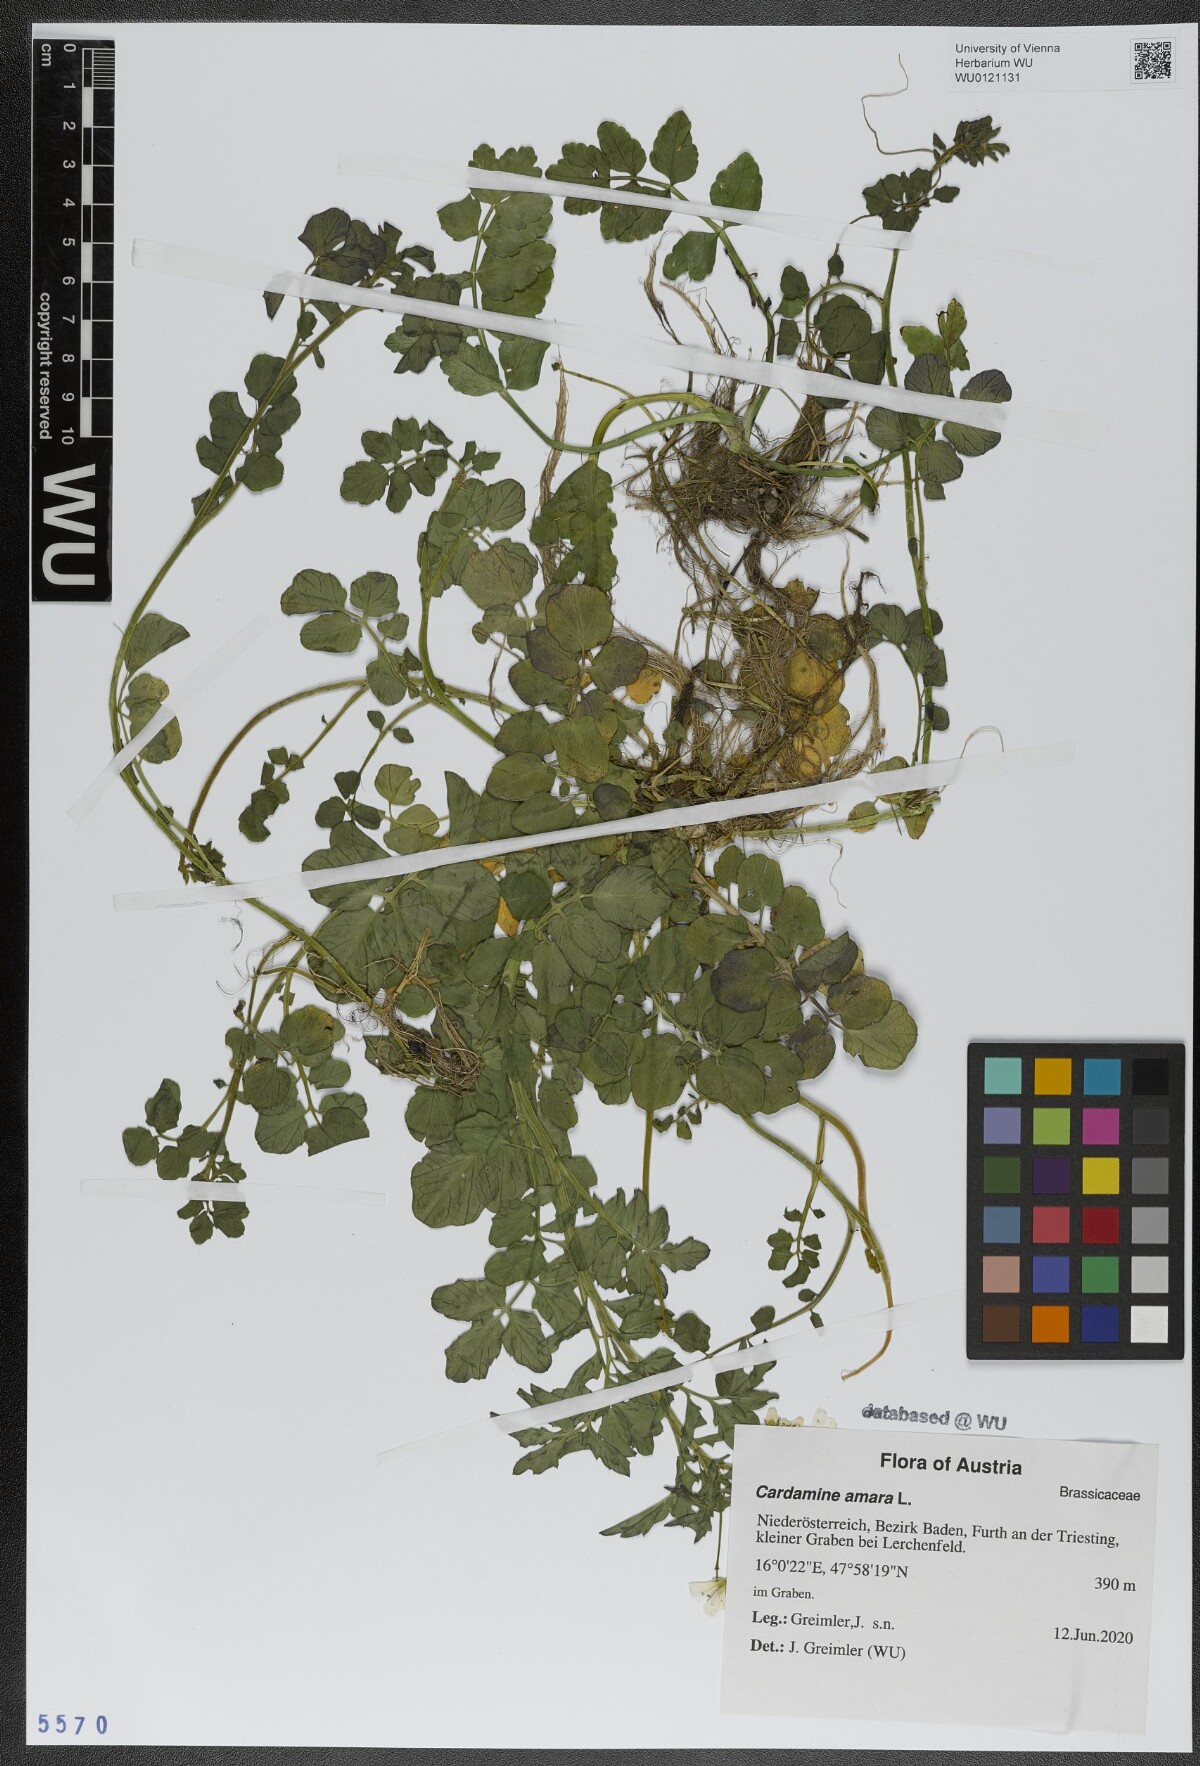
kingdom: Plantae
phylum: Tracheophyta
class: Magnoliopsida
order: Brassicales
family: Brassicaceae
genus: Cardamine
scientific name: Cardamine amara
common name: Large bitter-cress
